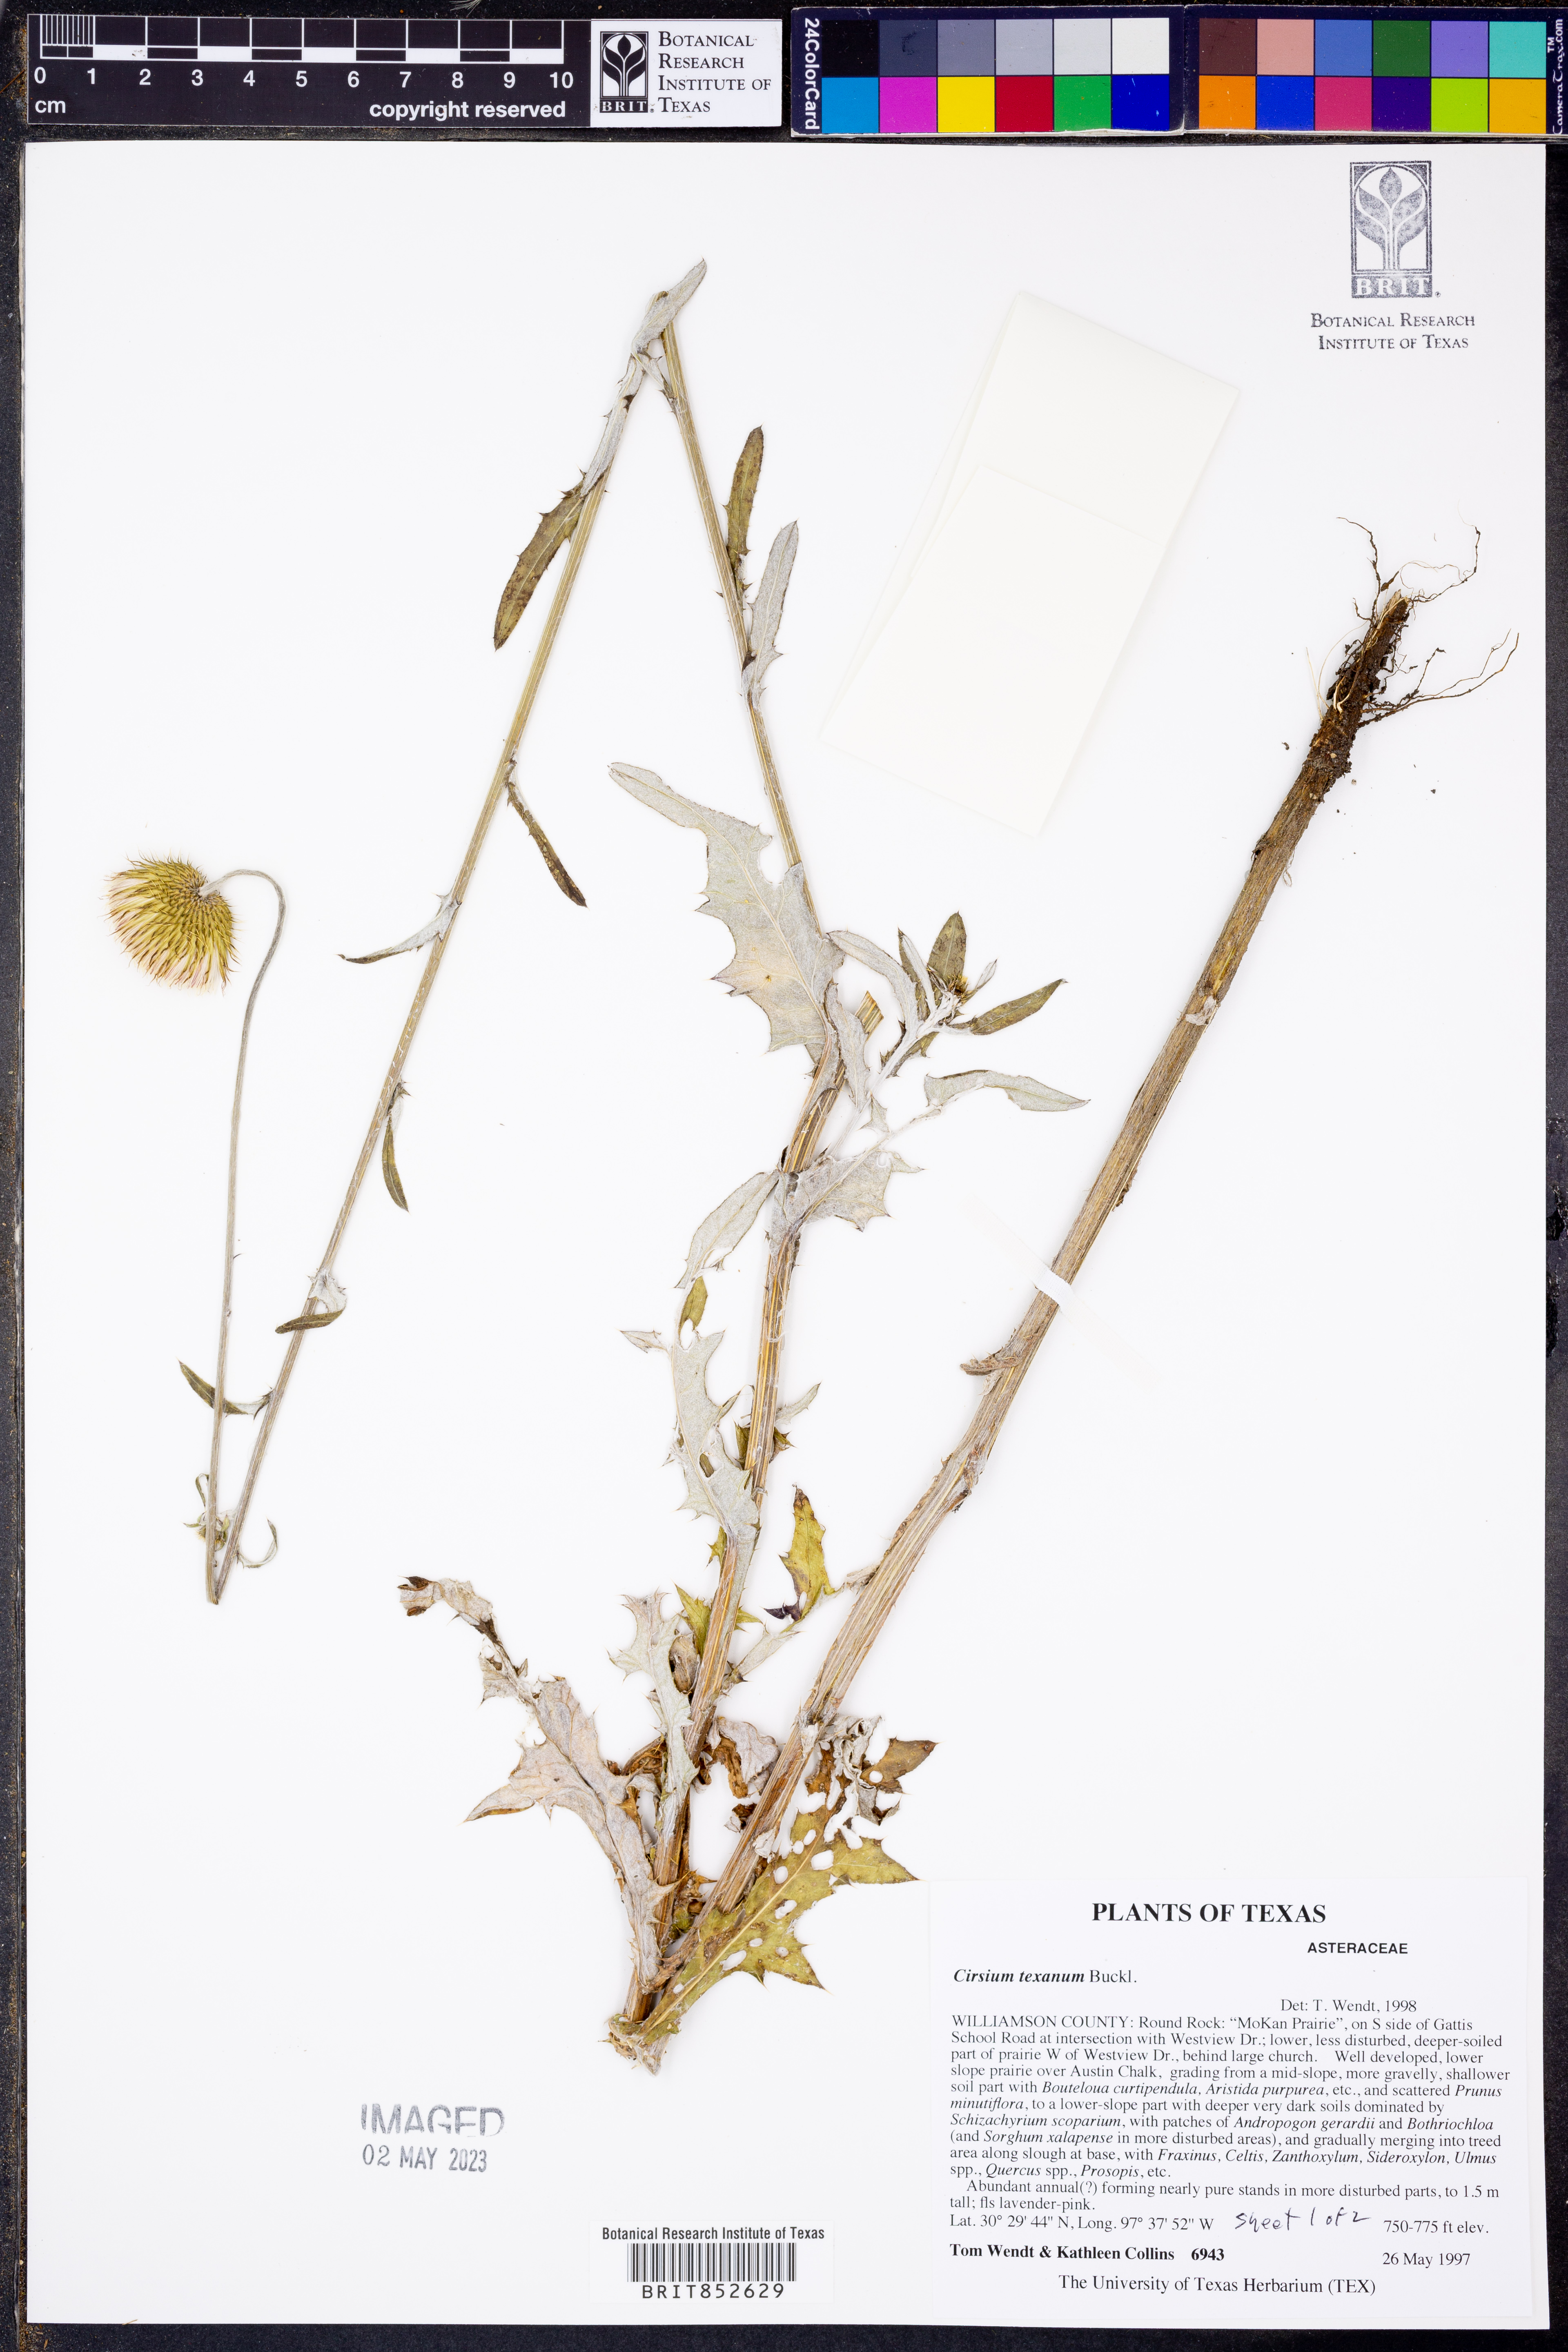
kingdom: Plantae
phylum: Tracheophyta
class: Magnoliopsida
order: Asterales
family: Asteraceae
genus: Cirsium
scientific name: Cirsium texanum
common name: Texas purple thistle
